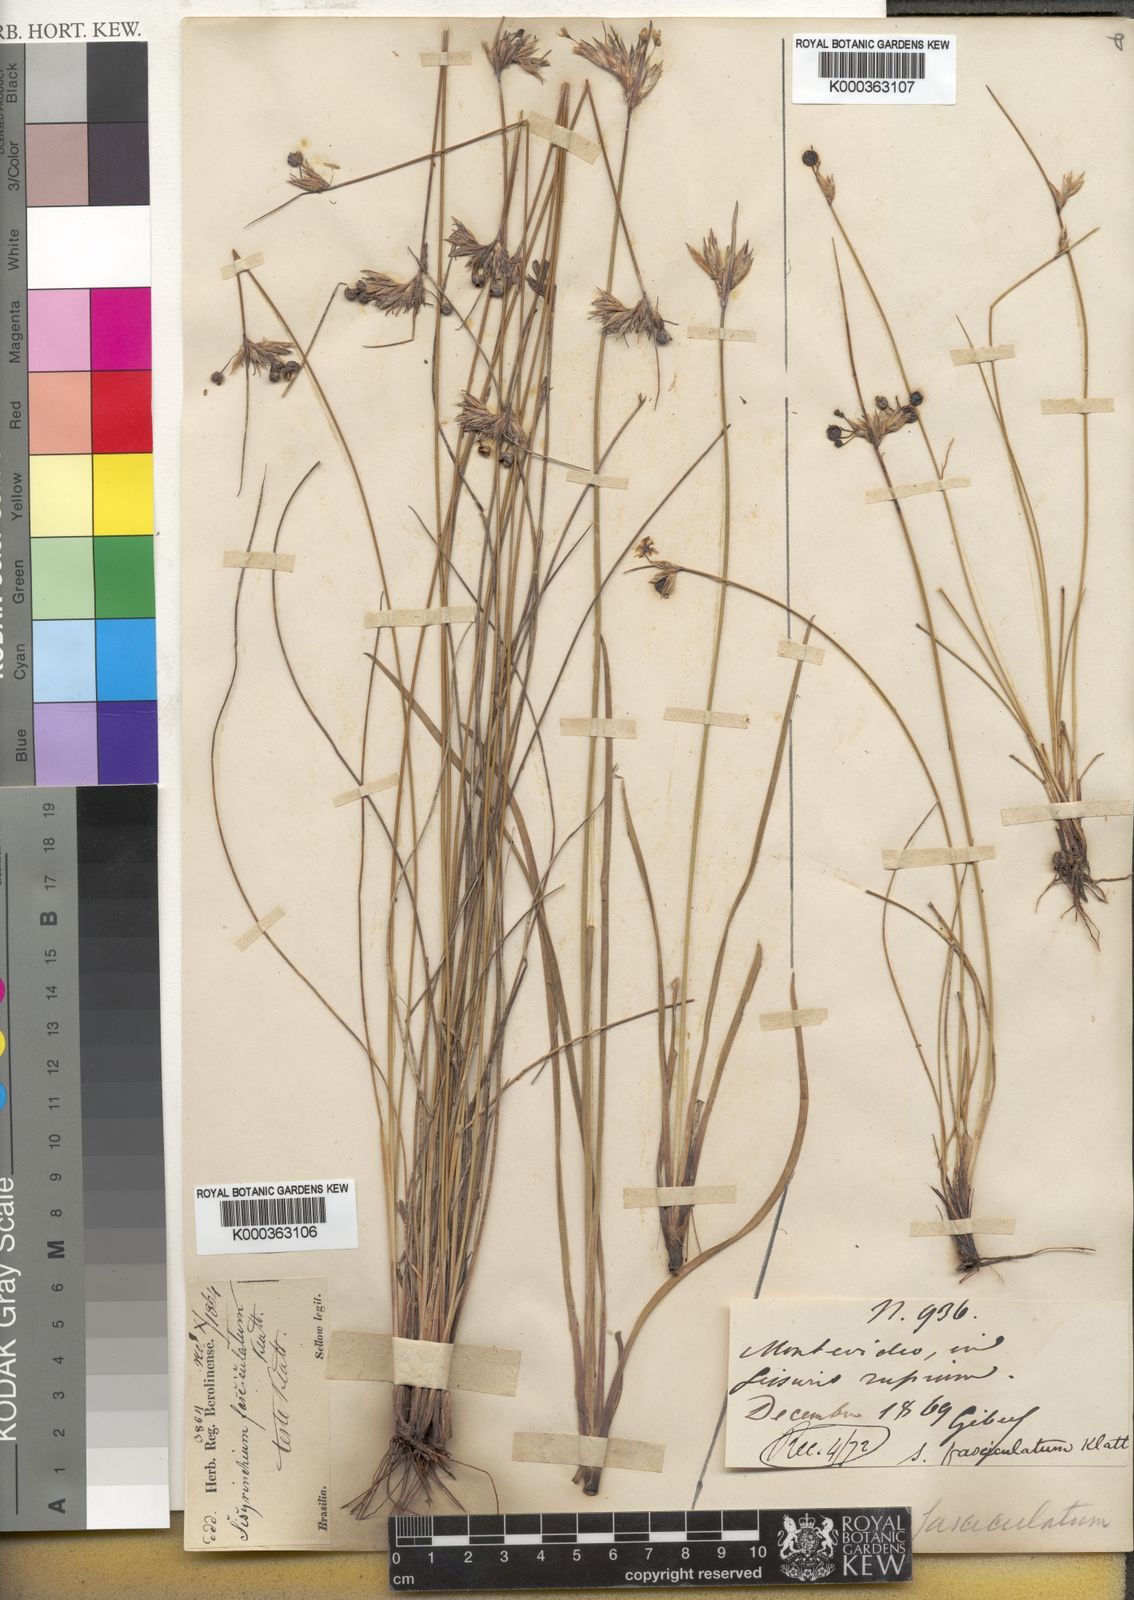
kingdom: Plantae
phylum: Tracheophyta
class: Liliopsida
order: Asparagales
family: Iridaceae
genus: Sisyrinchium
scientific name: Sisyrinchium fasciculatum
